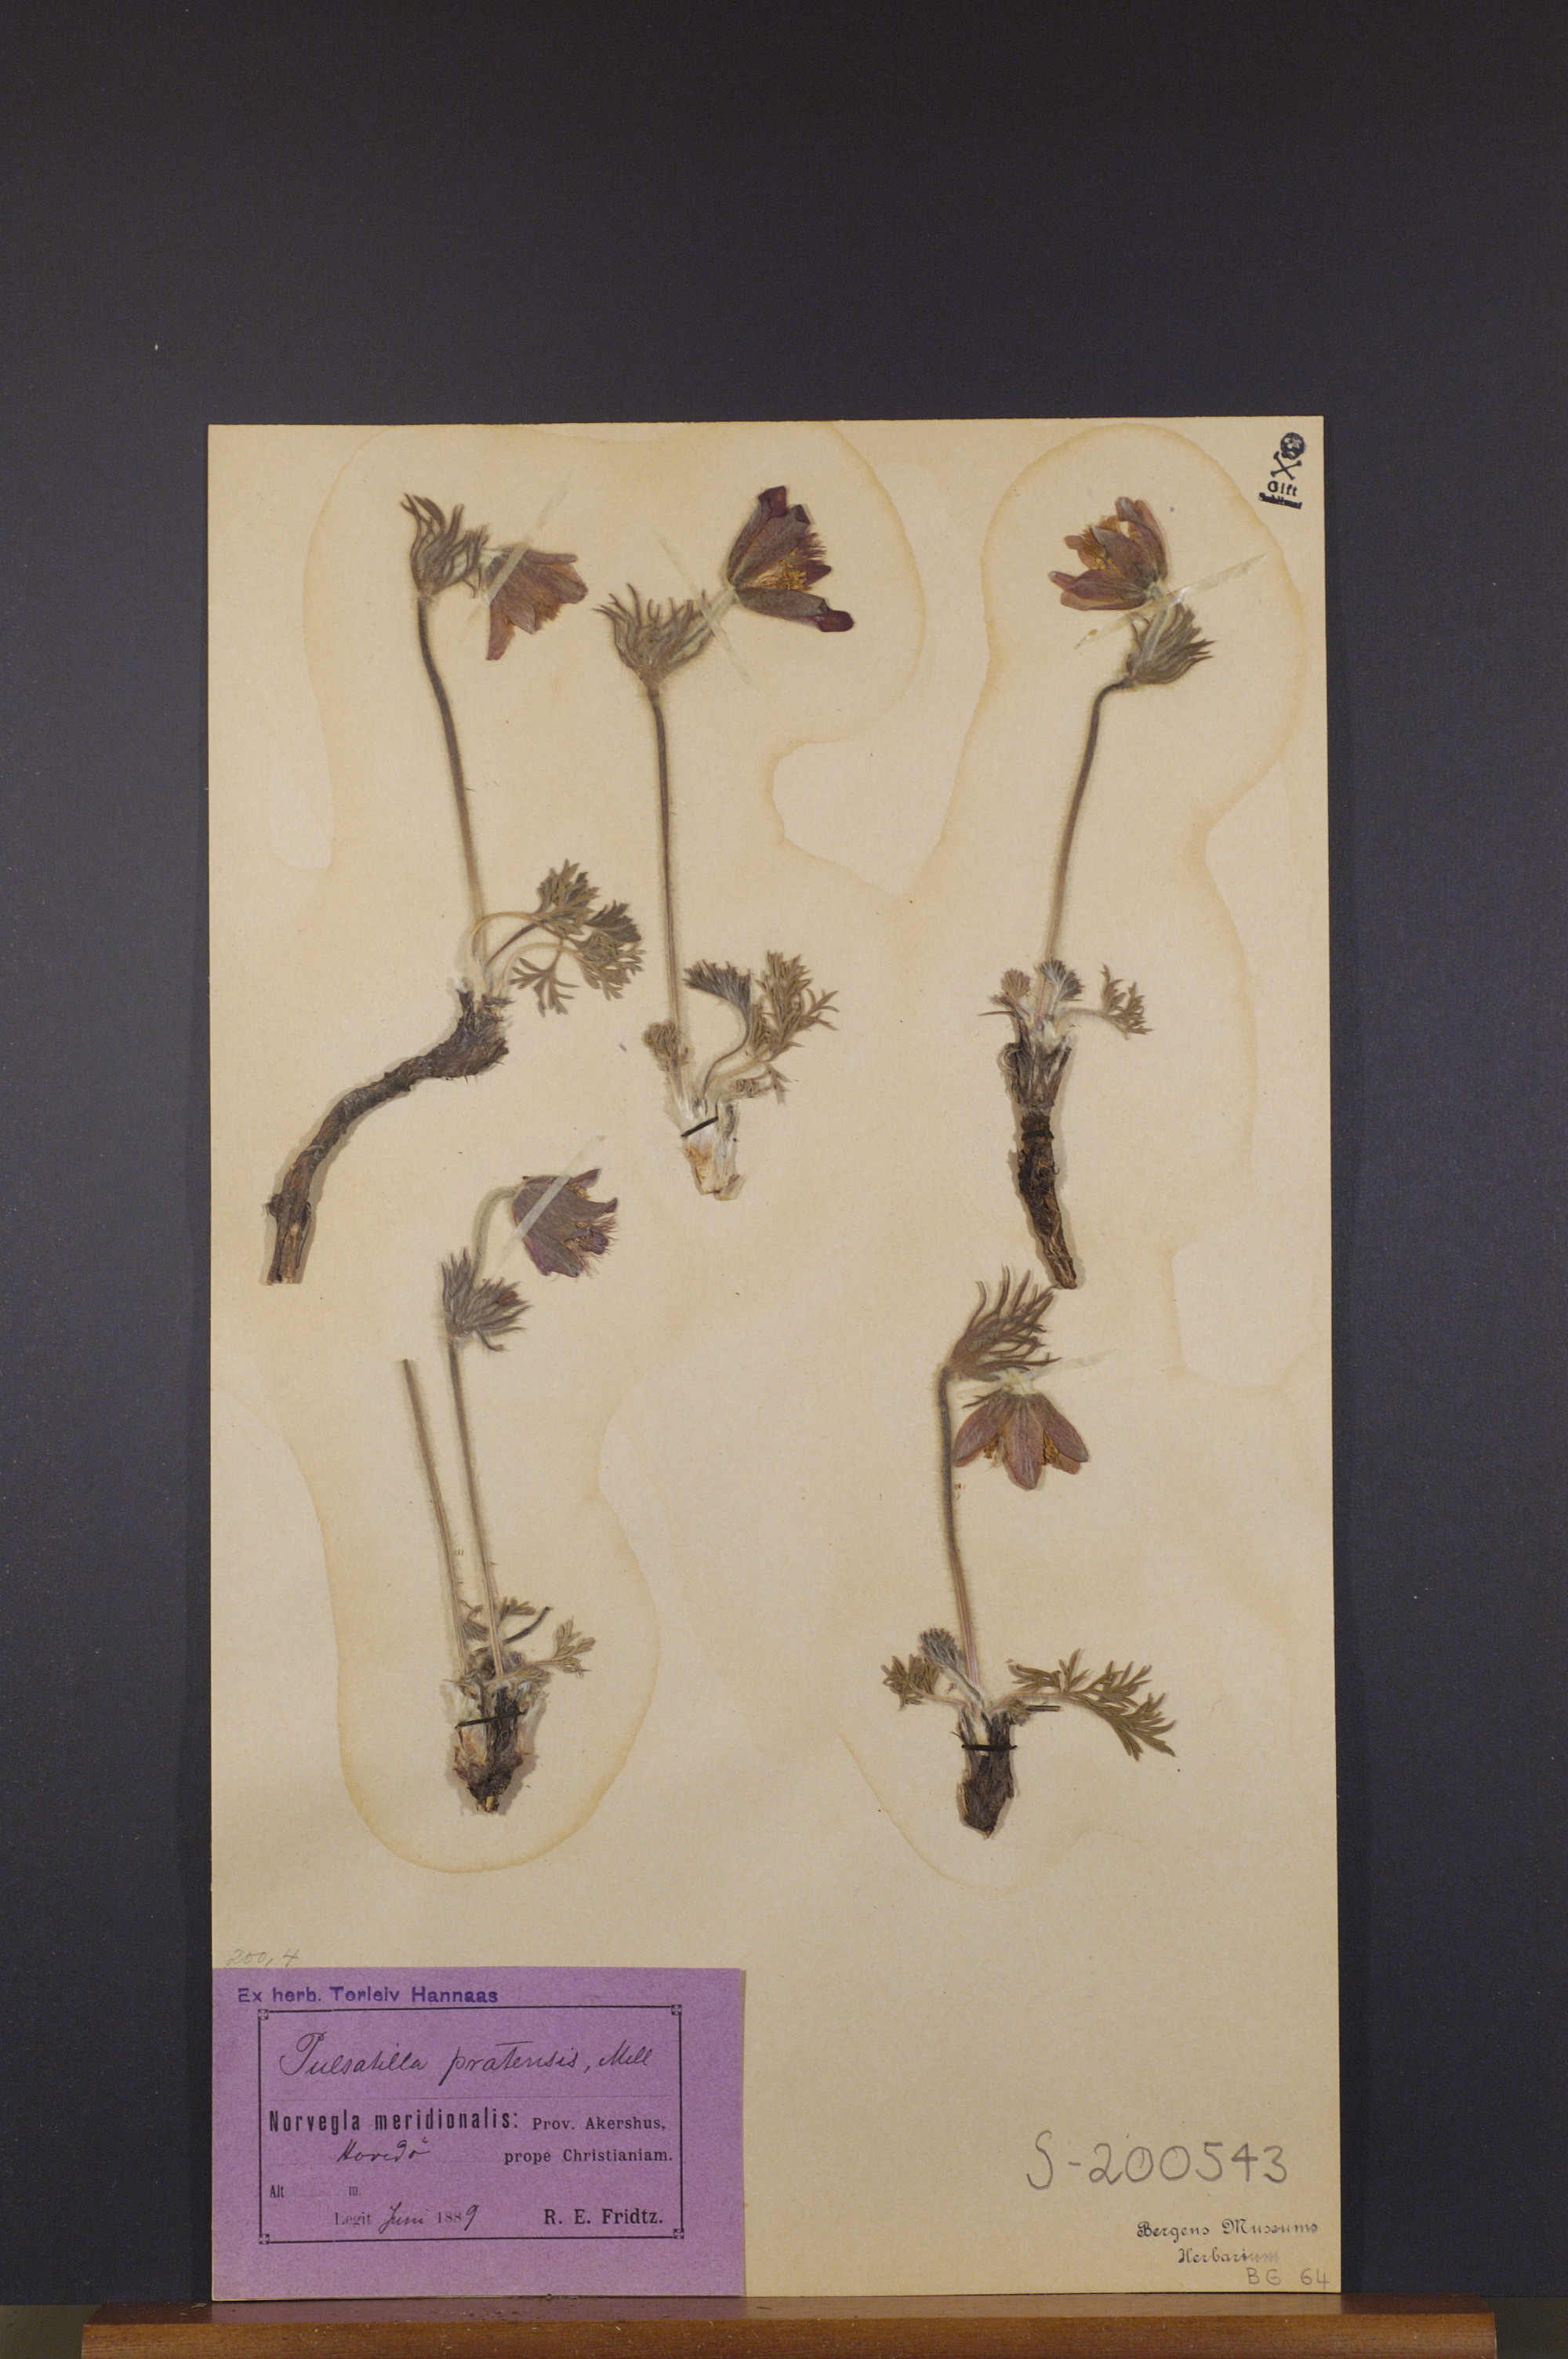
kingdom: Plantae
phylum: Tracheophyta
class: Magnoliopsida
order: Ranunculales
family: Ranunculaceae
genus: Pulsatilla
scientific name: Pulsatilla pratensis
